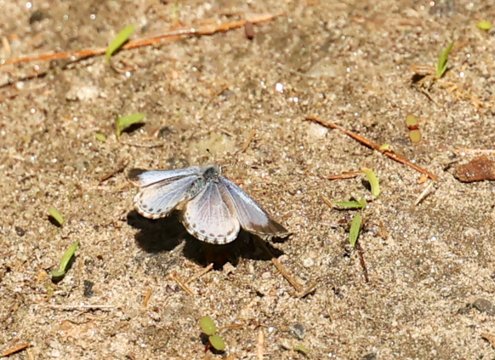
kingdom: Animalia
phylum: Arthropoda
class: Insecta
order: Lepidoptera
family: Lycaenidae
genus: Celastrina
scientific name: Celastrina lucia
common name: Northern Spring Azure
